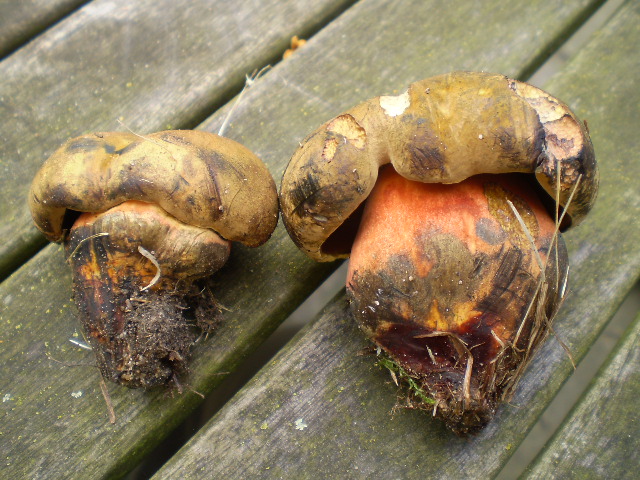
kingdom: Fungi
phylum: Basidiomycota
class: Agaricomycetes
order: Boletales
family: Boletaceae
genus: Neoboletus
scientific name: Neoboletus erythropus
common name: punktstokket indigorørhat
